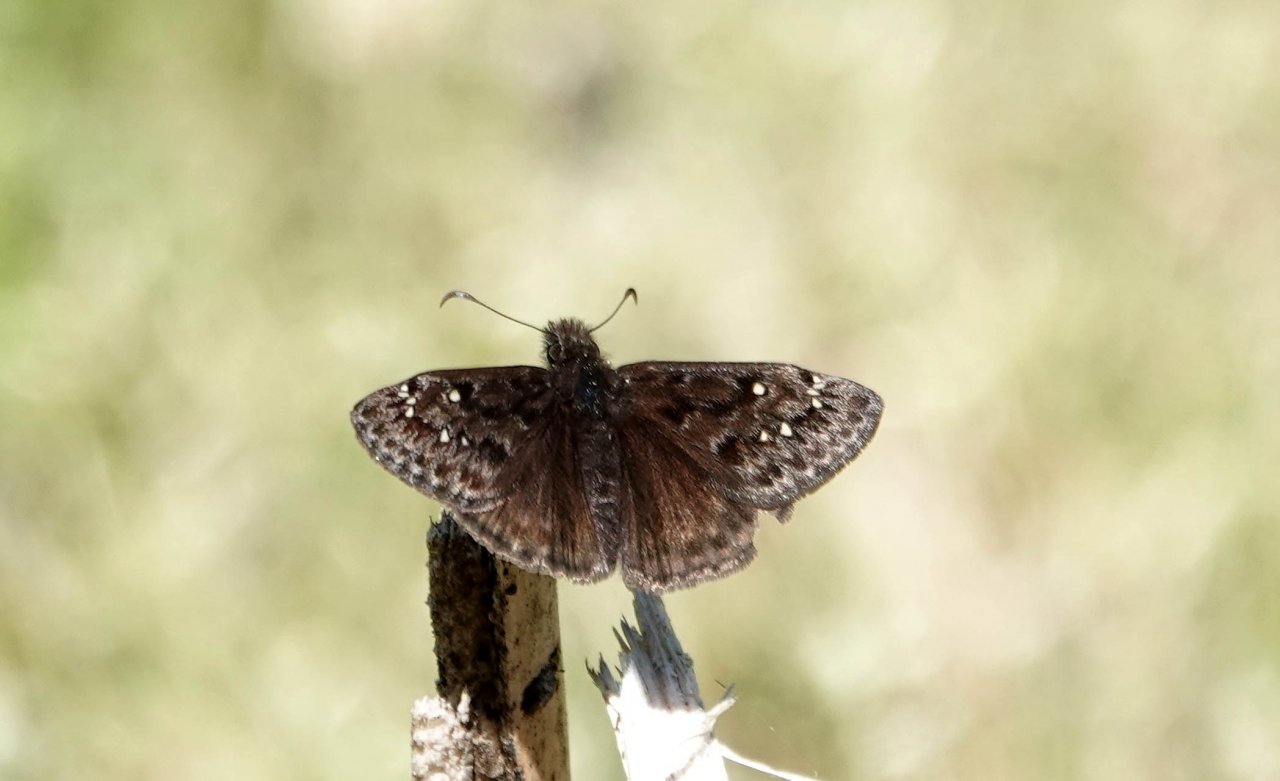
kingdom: Animalia
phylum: Arthropoda
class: Insecta
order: Lepidoptera
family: Hesperiidae
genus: Gesta
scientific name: Gesta
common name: Juvenal's Duskywing
